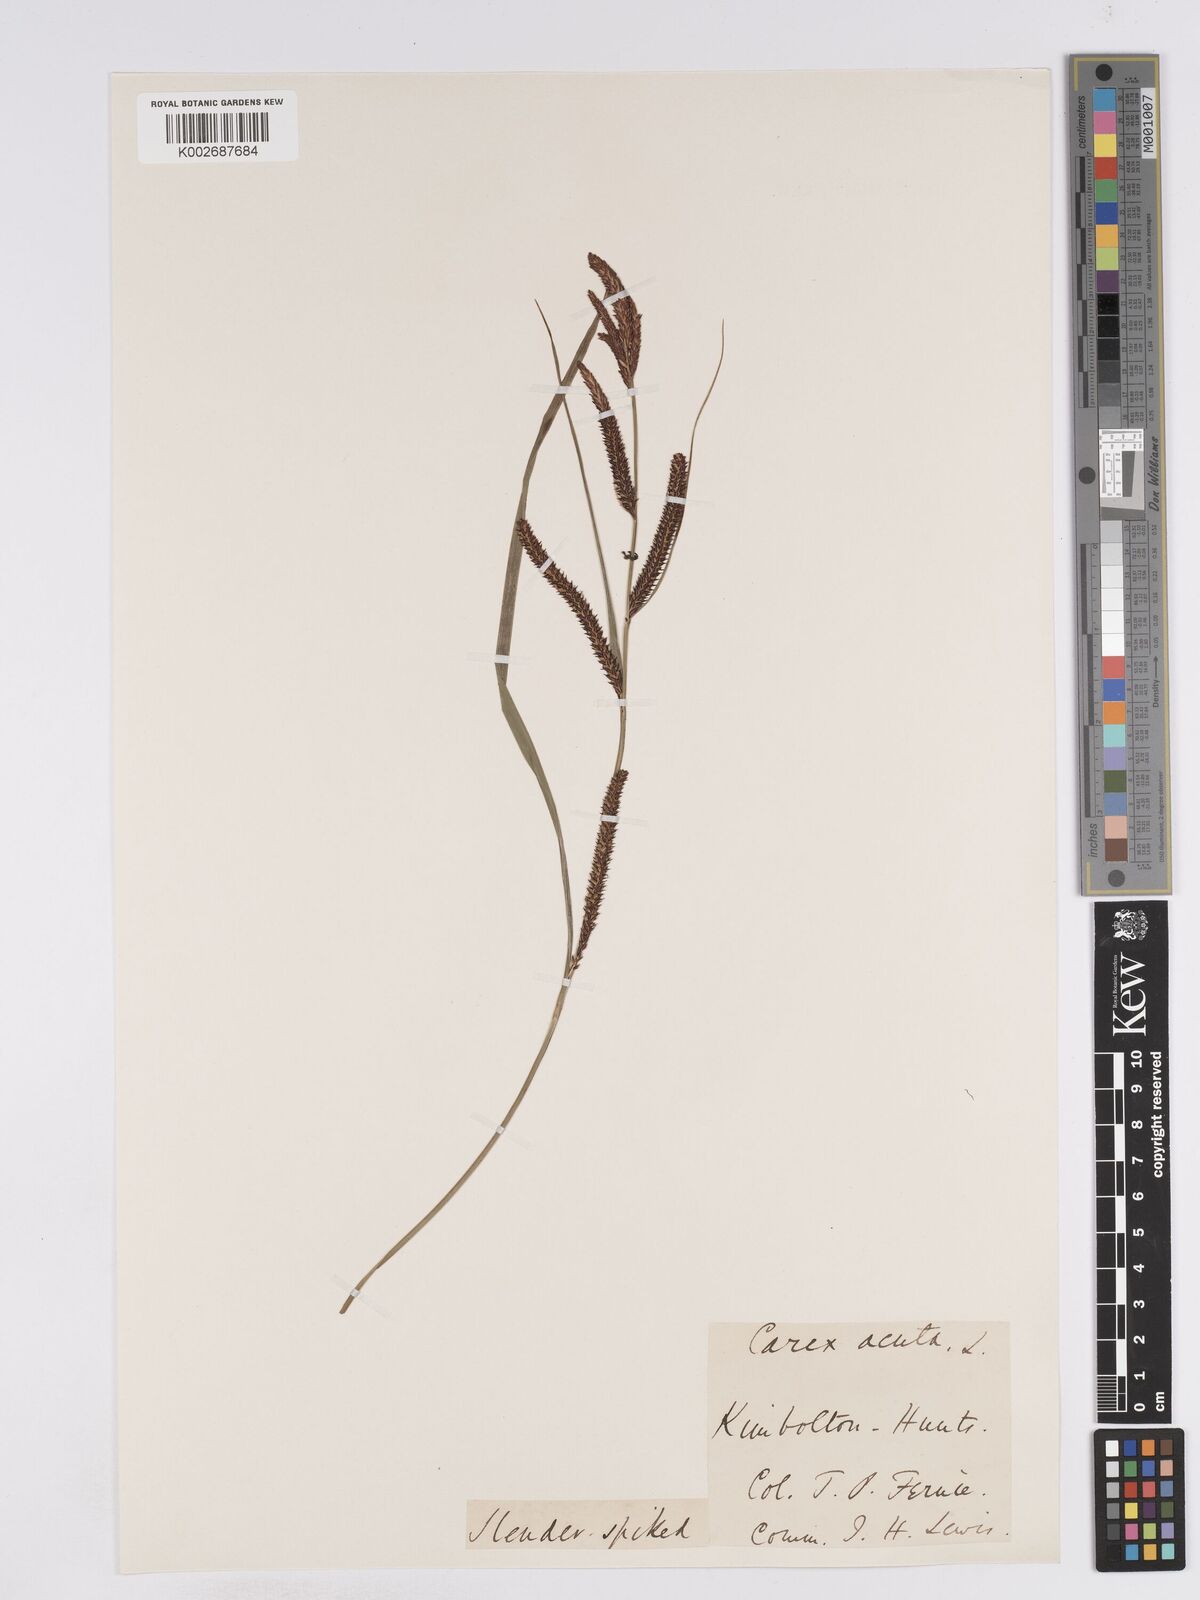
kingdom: Plantae
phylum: Tracheophyta
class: Liliopsida
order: Poales
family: Cyperaceae
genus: Carex
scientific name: Carex acuta
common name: Slender tufted-sedge
